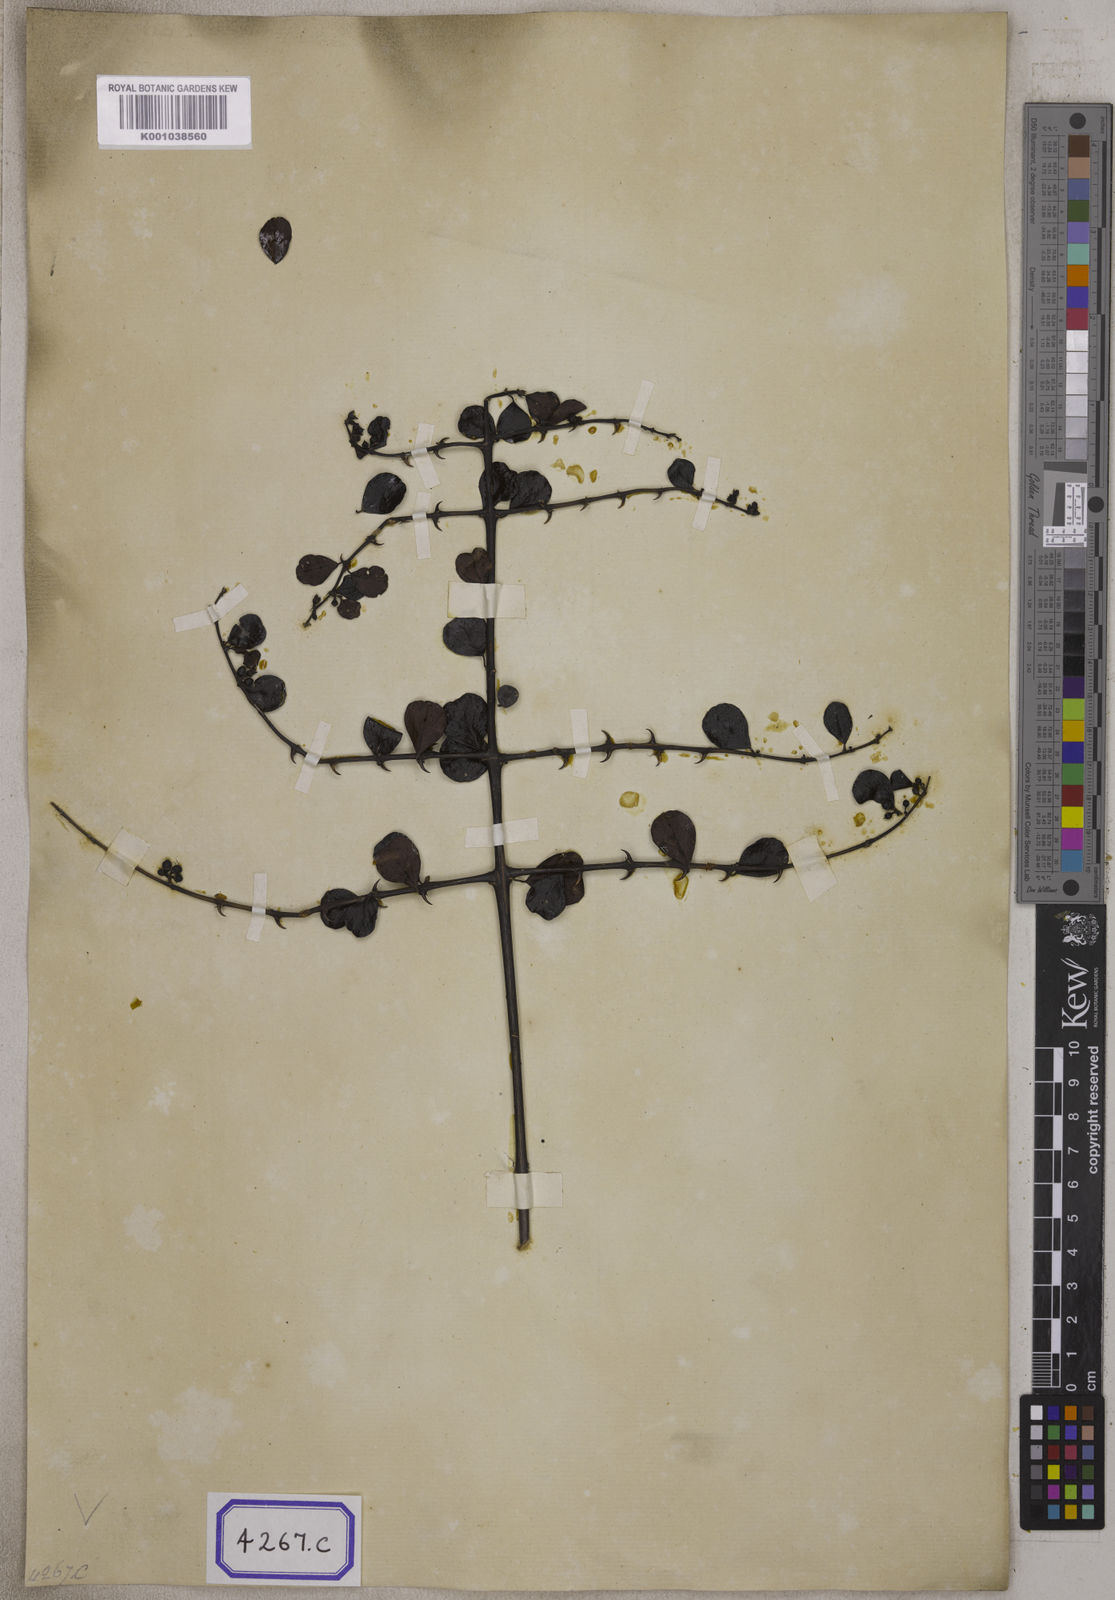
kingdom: Plantae
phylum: Tracheophyta
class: Magnoliopsida
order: Rosales
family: Rhamnaceae
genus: Ceanothus
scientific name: Ceanothus
